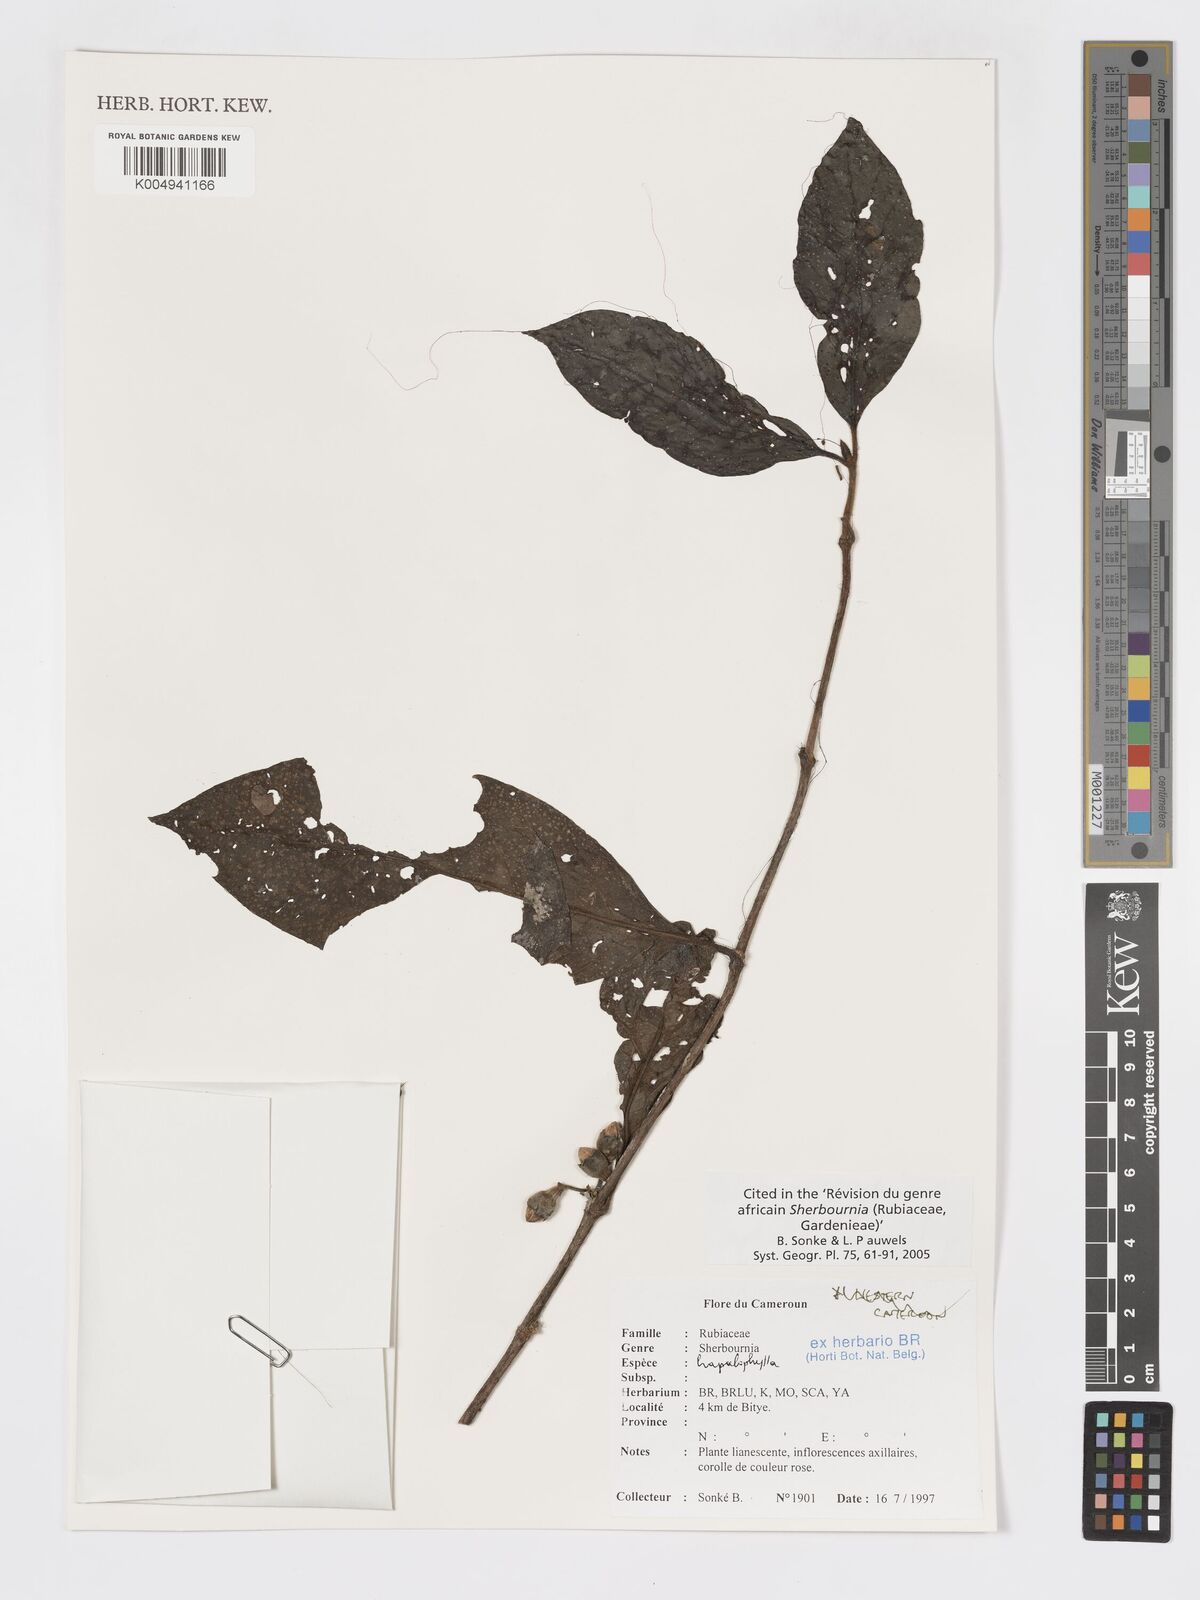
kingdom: Plantae
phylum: Tracheophyta
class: Magnoliopsida
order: Gentianales
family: Rubiaceae
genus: Sherbournia
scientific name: Sherbournia hapalophylla
